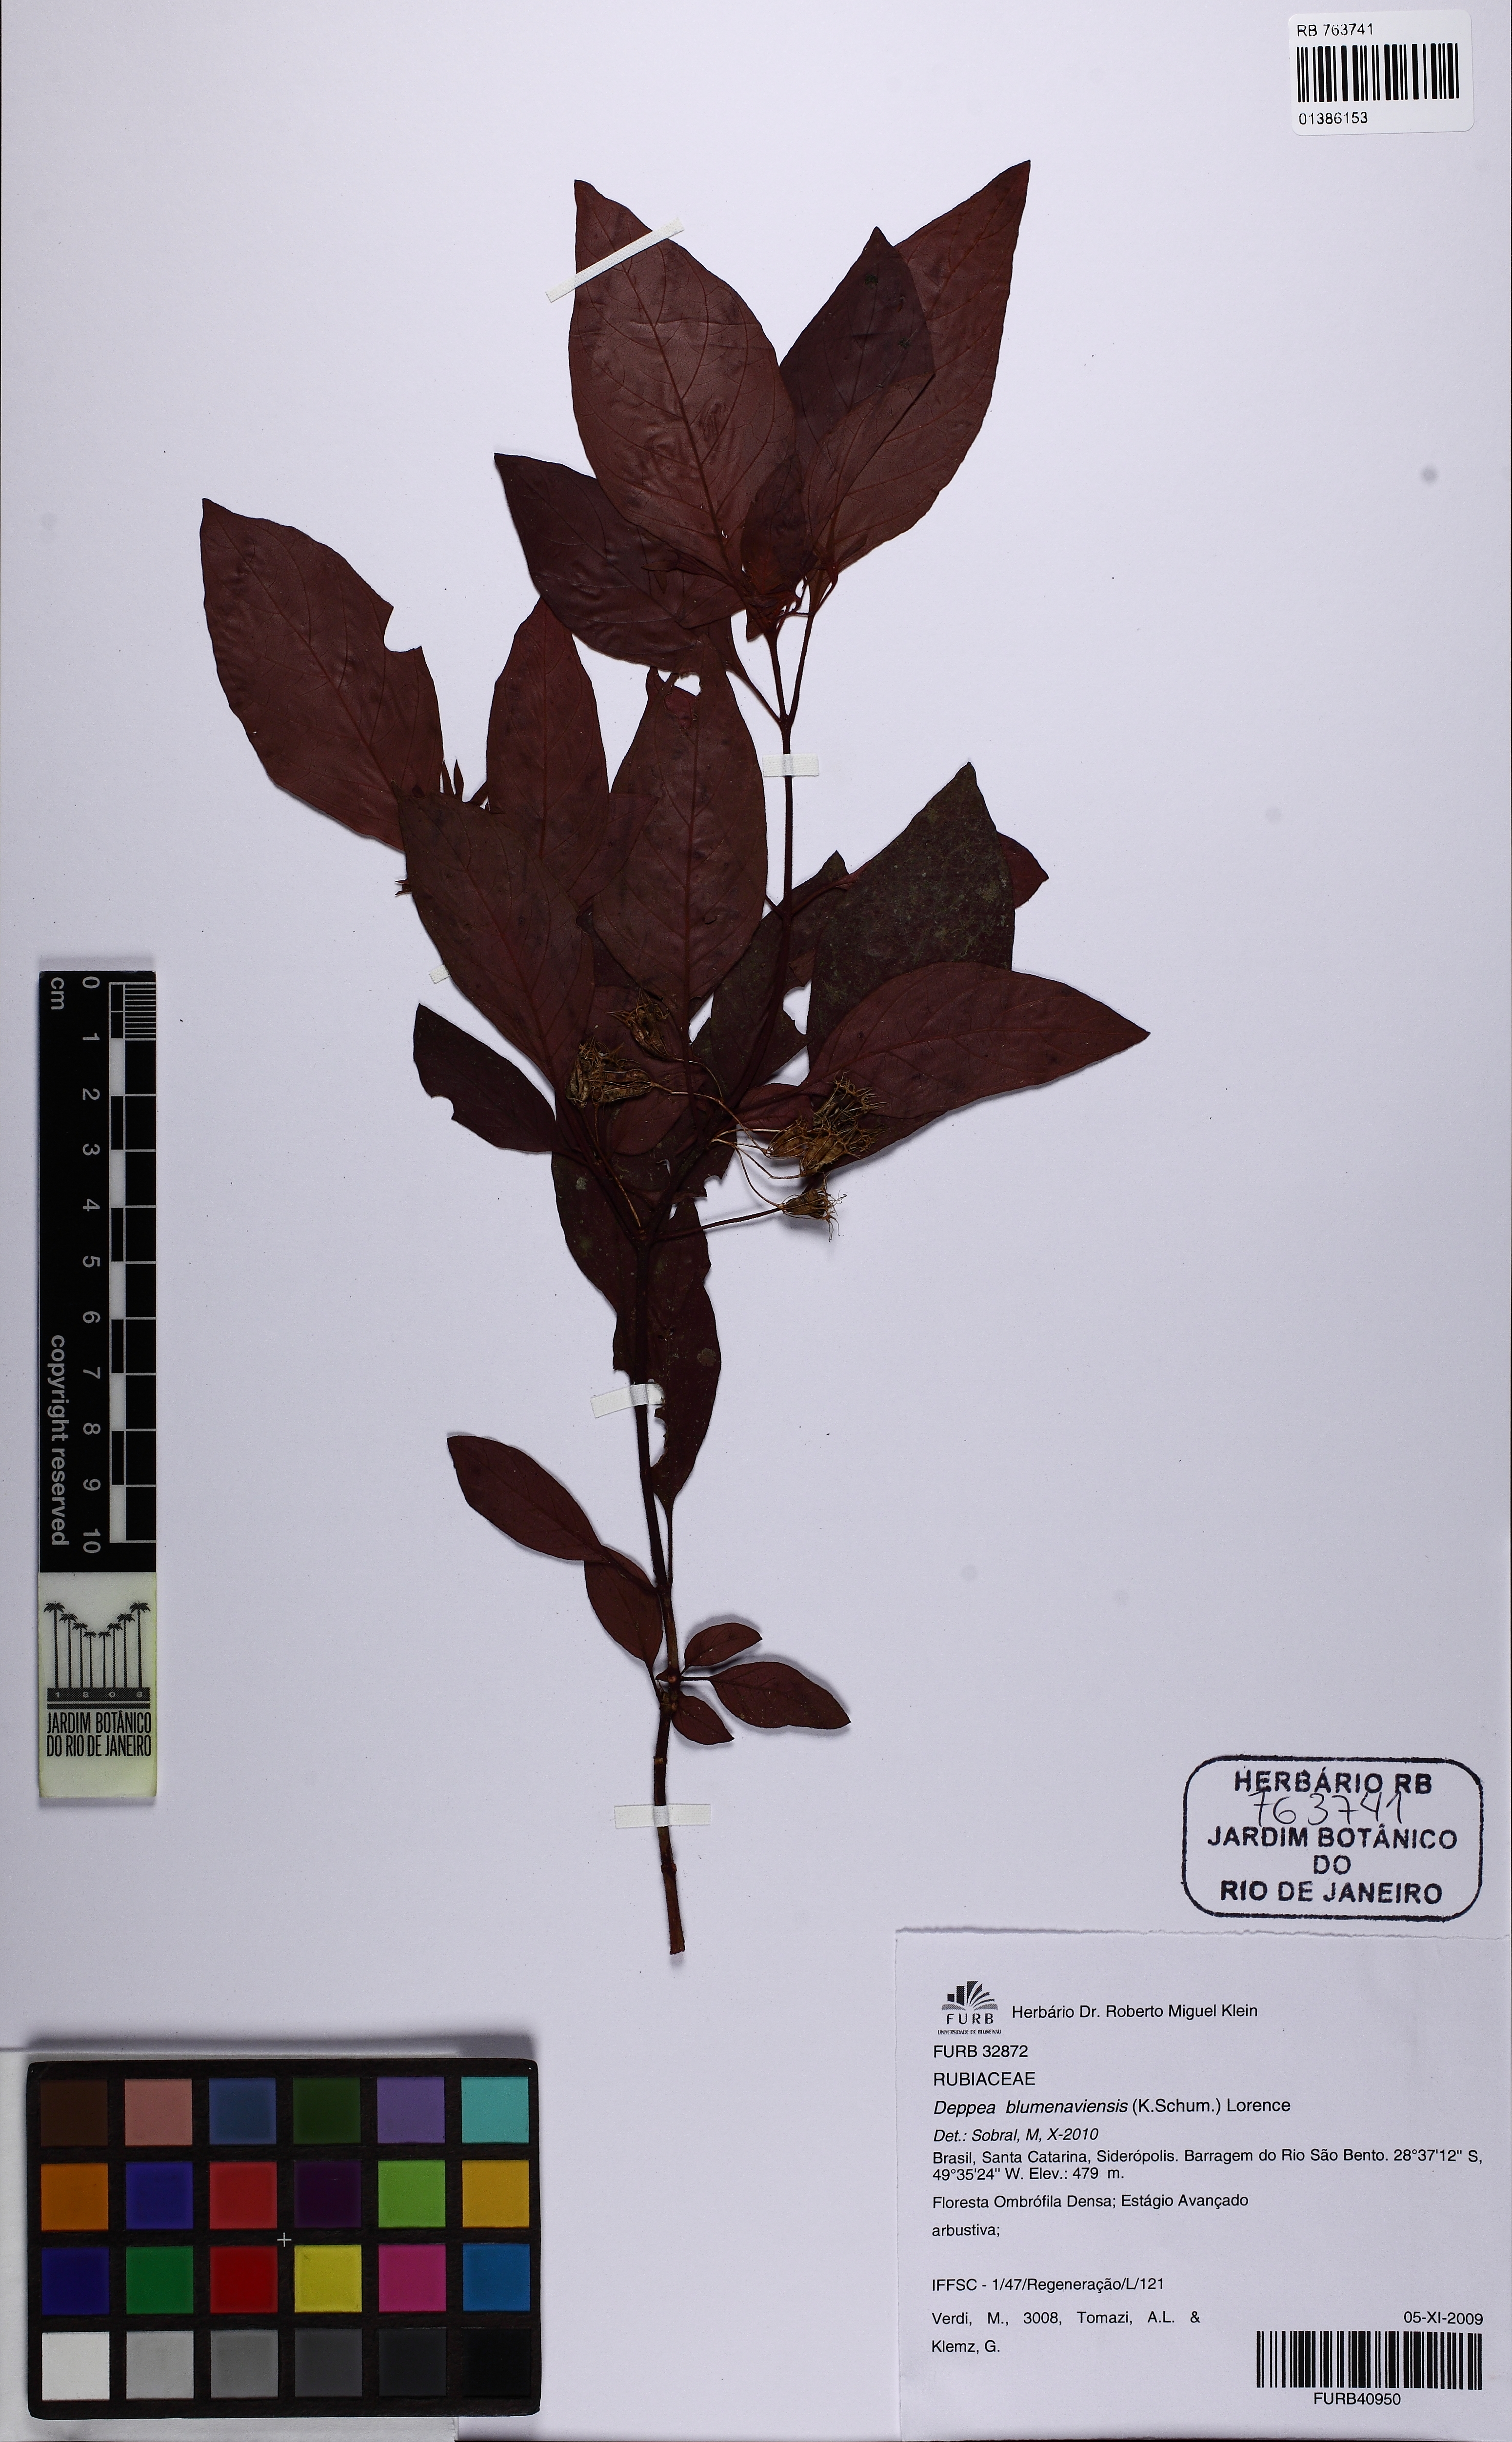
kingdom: Plantae
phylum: Tracheophyta
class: Magnoliopsida
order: Gentianales
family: Rubiaceae
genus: Deppea
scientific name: Deppea blumenaviensis
